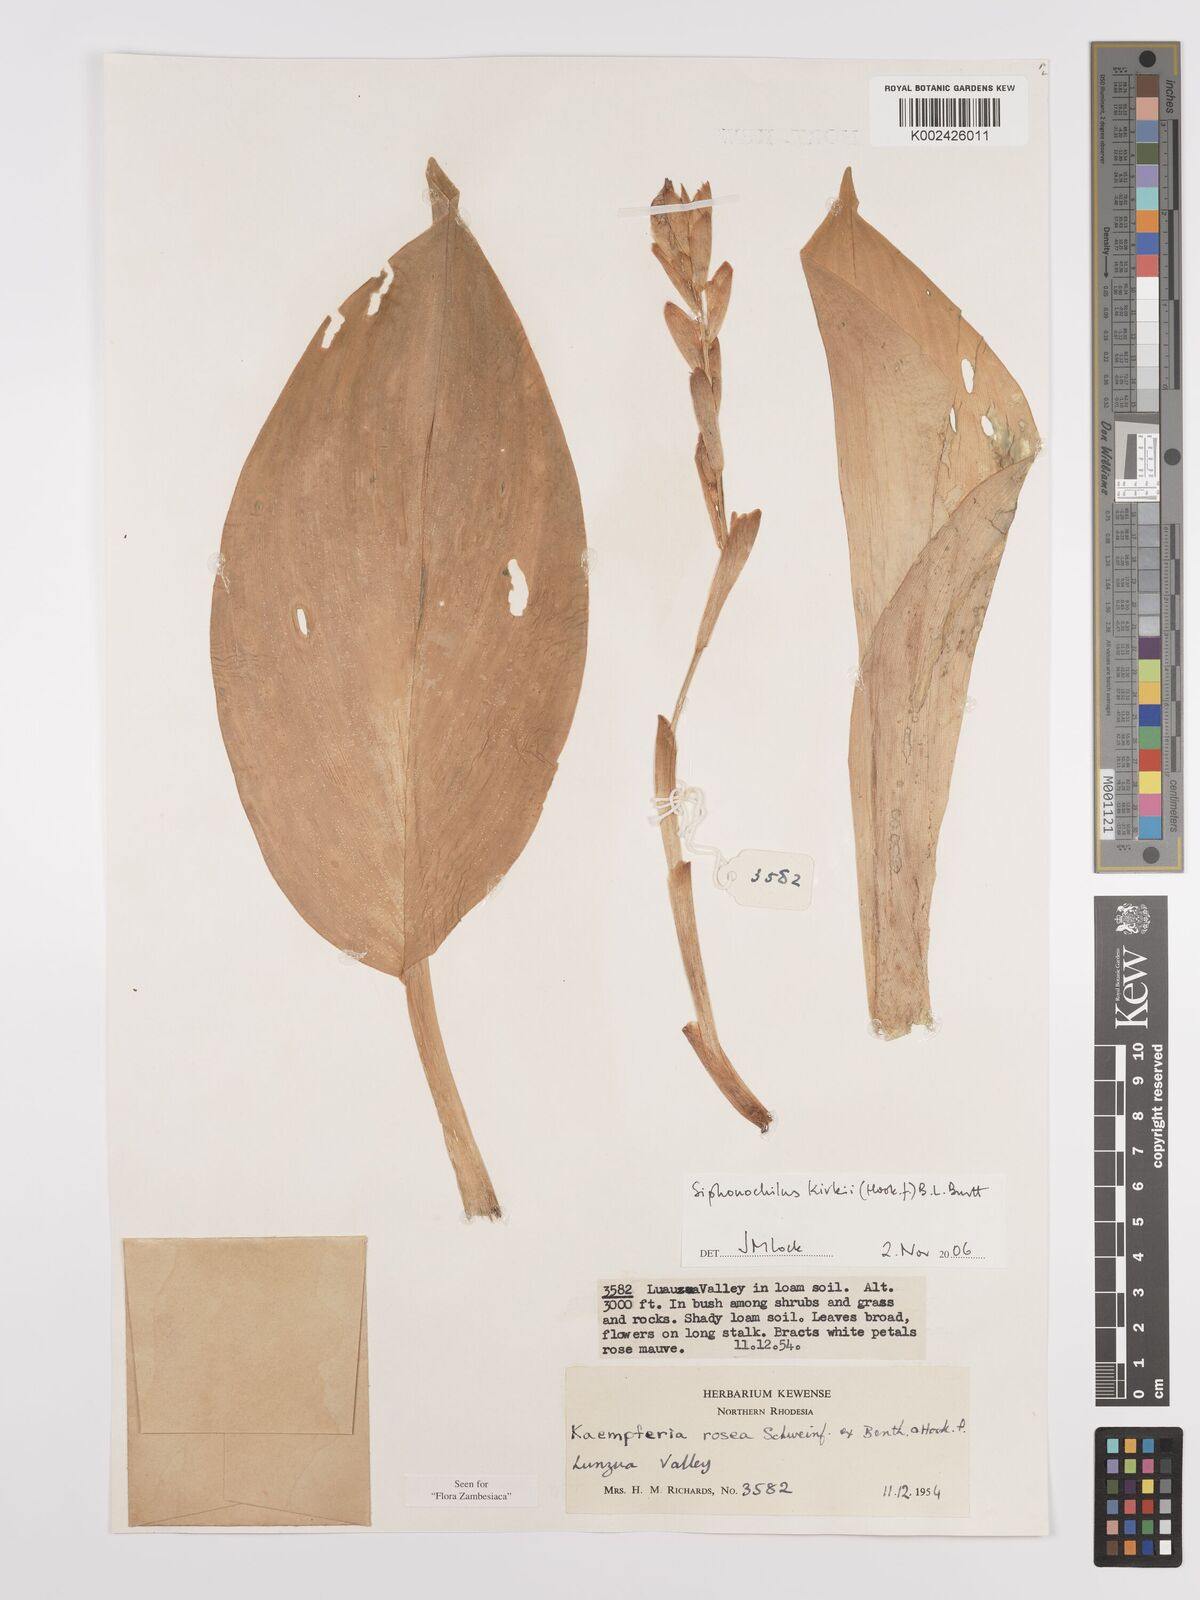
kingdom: Plantae
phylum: Tracheophyta
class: Liliopsida
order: Zingiberales
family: Zingiberaceae
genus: Siphonochilus
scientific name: Siphonochilus kirkii
